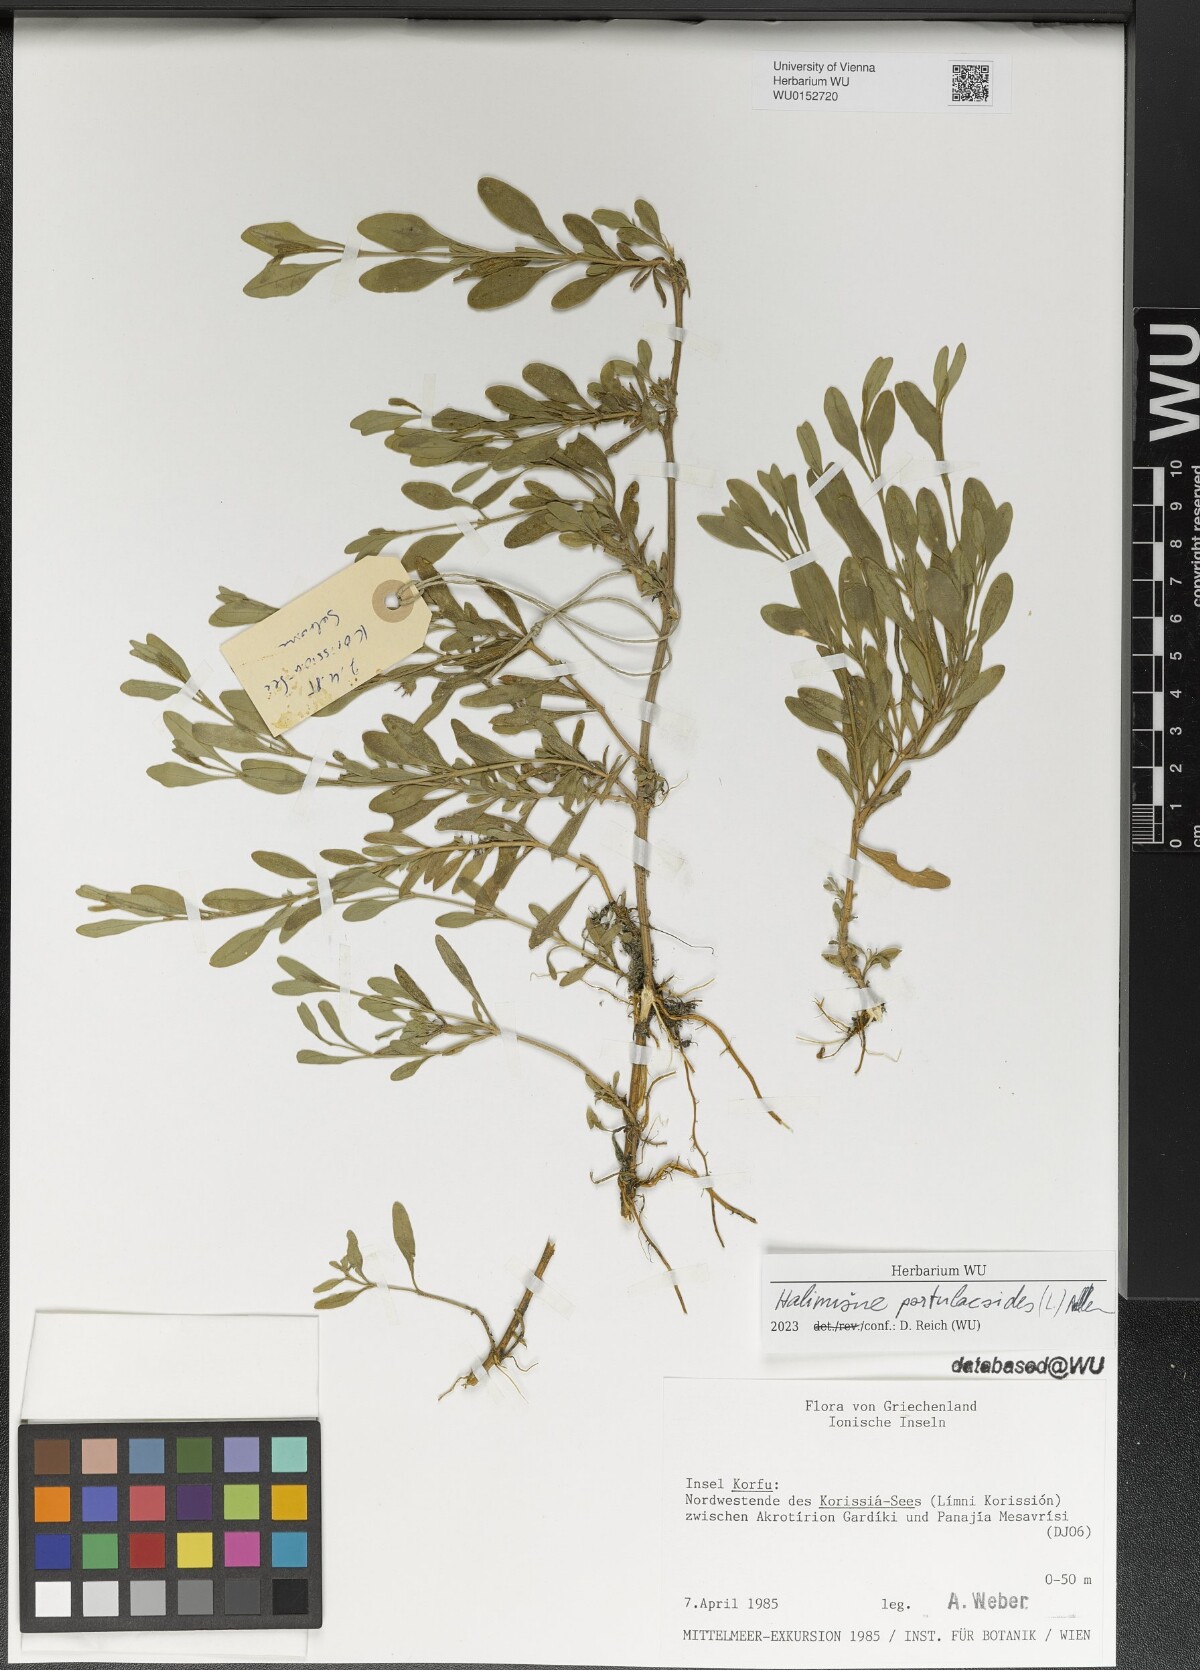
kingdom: Plantae
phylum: Tracheophyta
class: Magnoliopsida
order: Caryophyllales
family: Amaranthaceae
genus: Halimione
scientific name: Halimione portulacoides
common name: Sea-purslane
